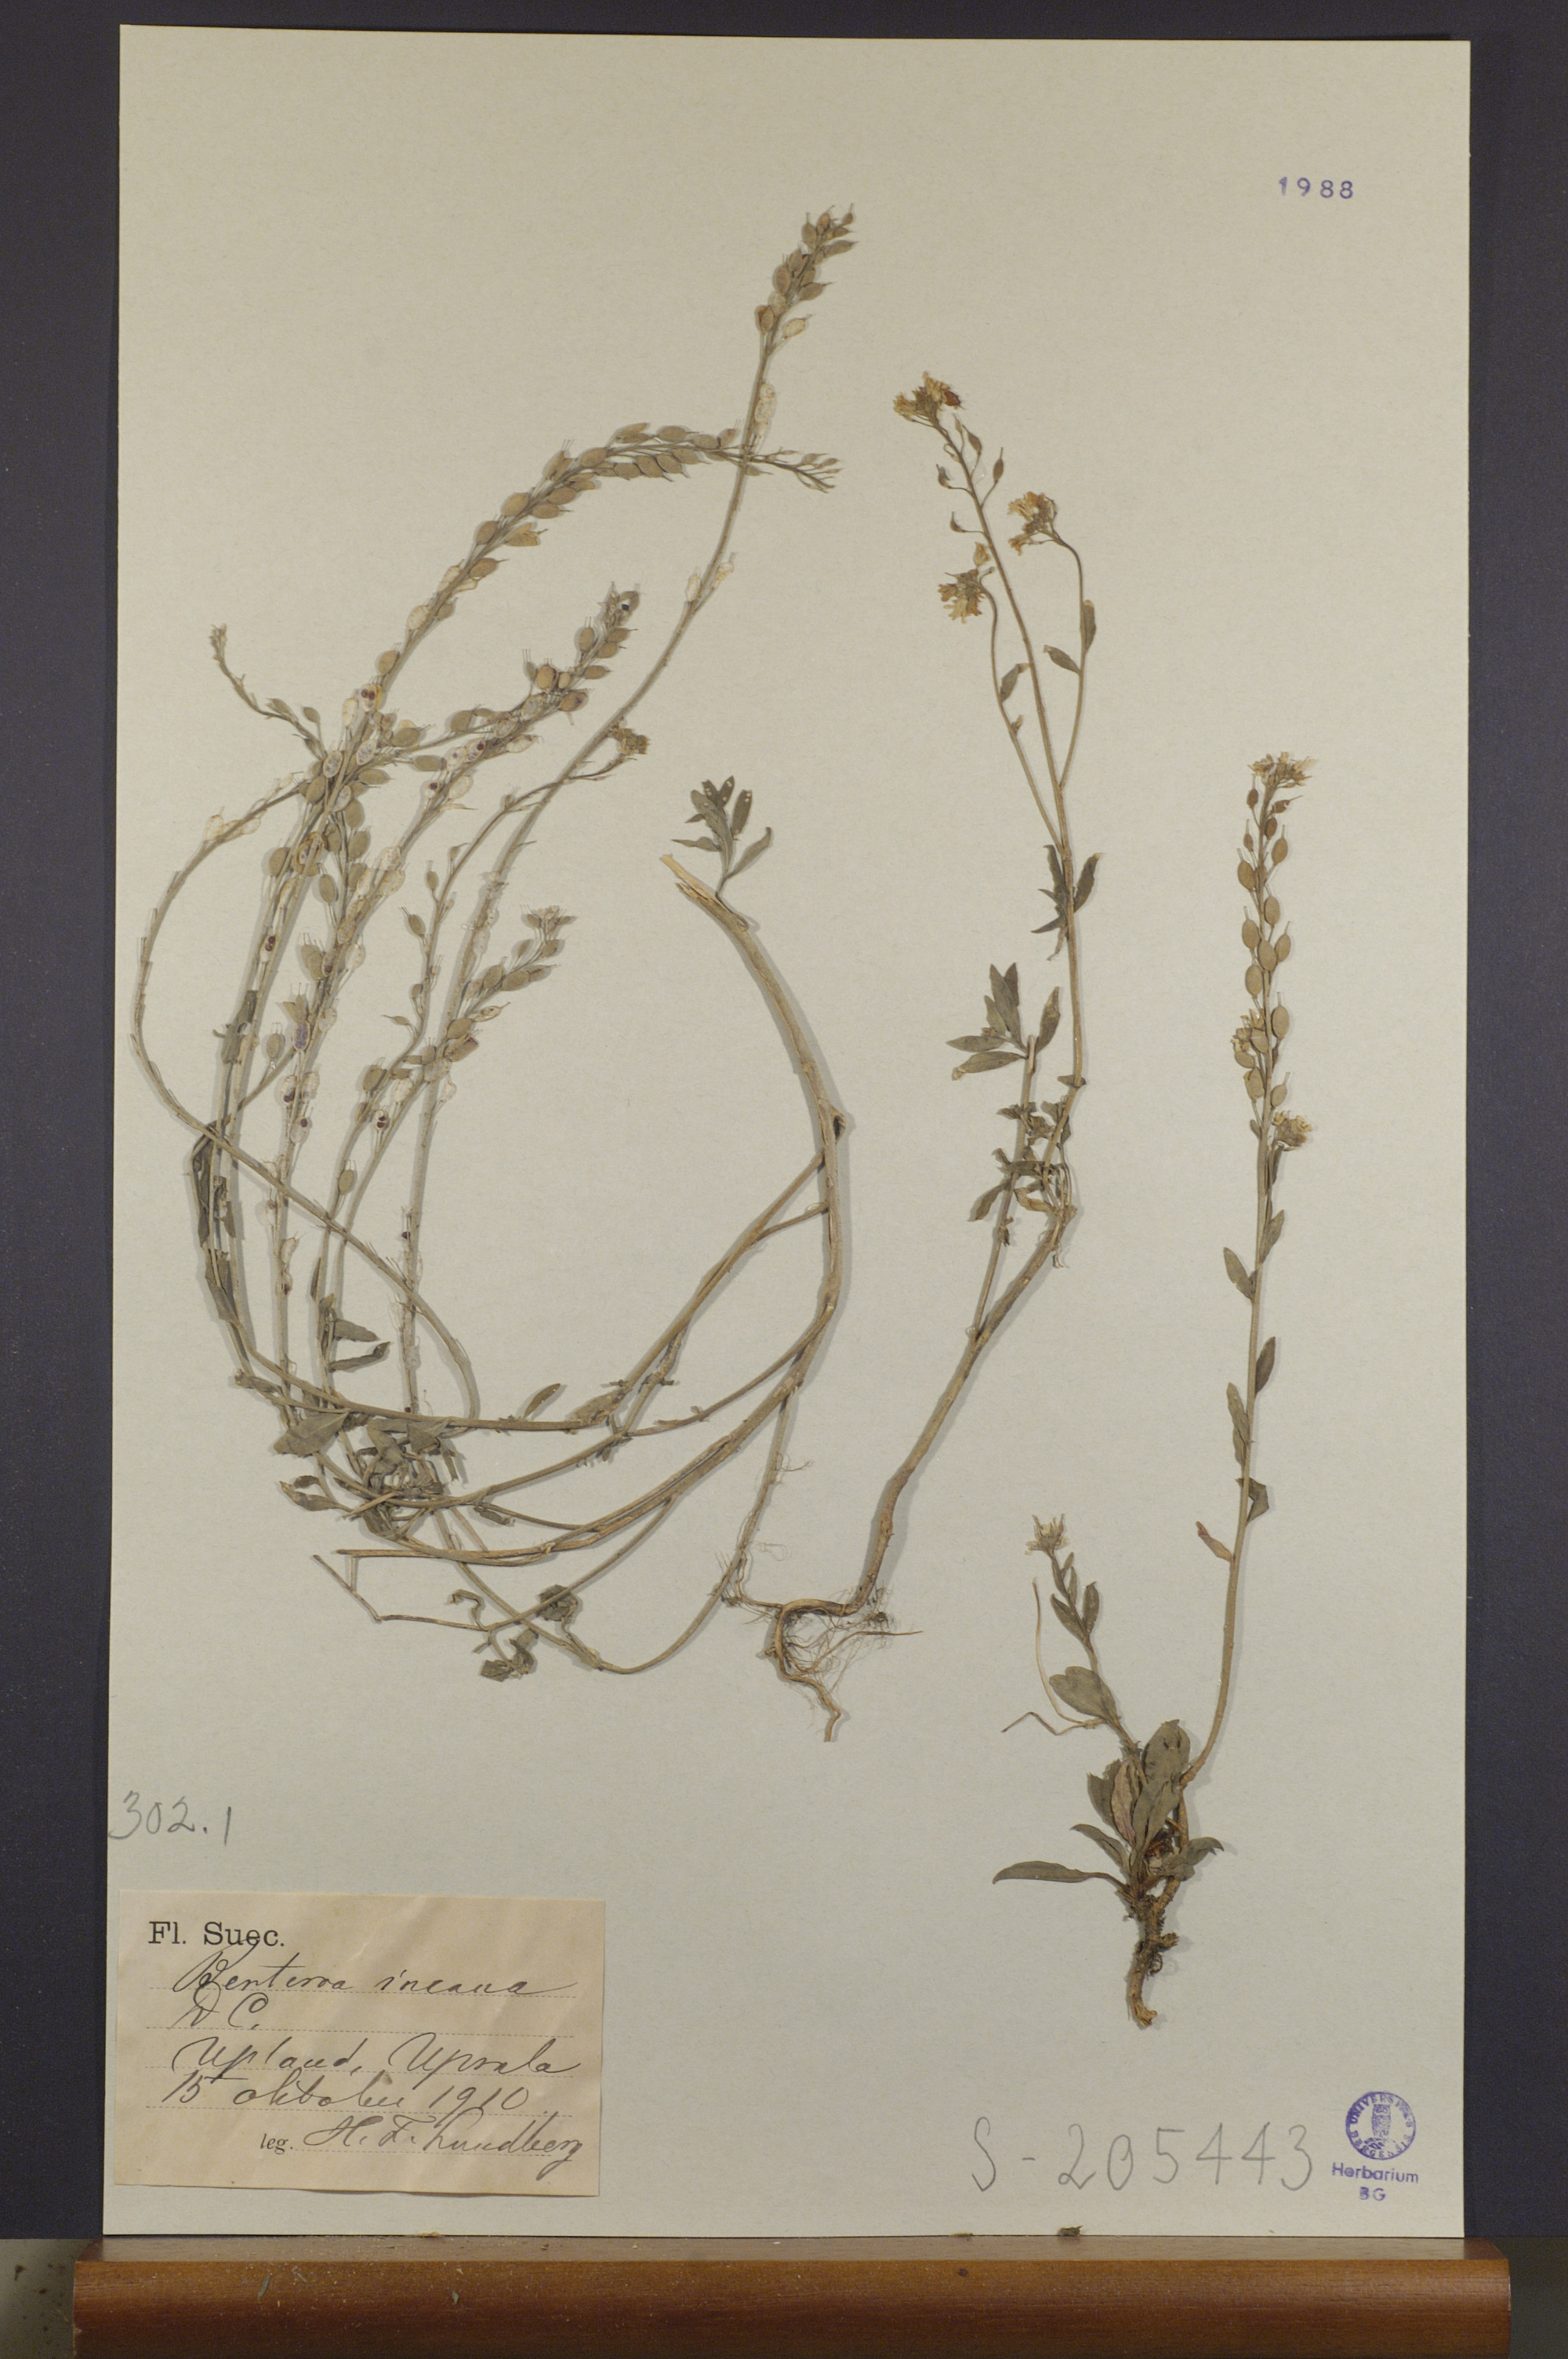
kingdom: Plantae
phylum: Tracheophyta
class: Magnoliopsida
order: Brassicales
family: Brassicaceae
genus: Berteroa
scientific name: Berteroa incana
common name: Hoary alison
